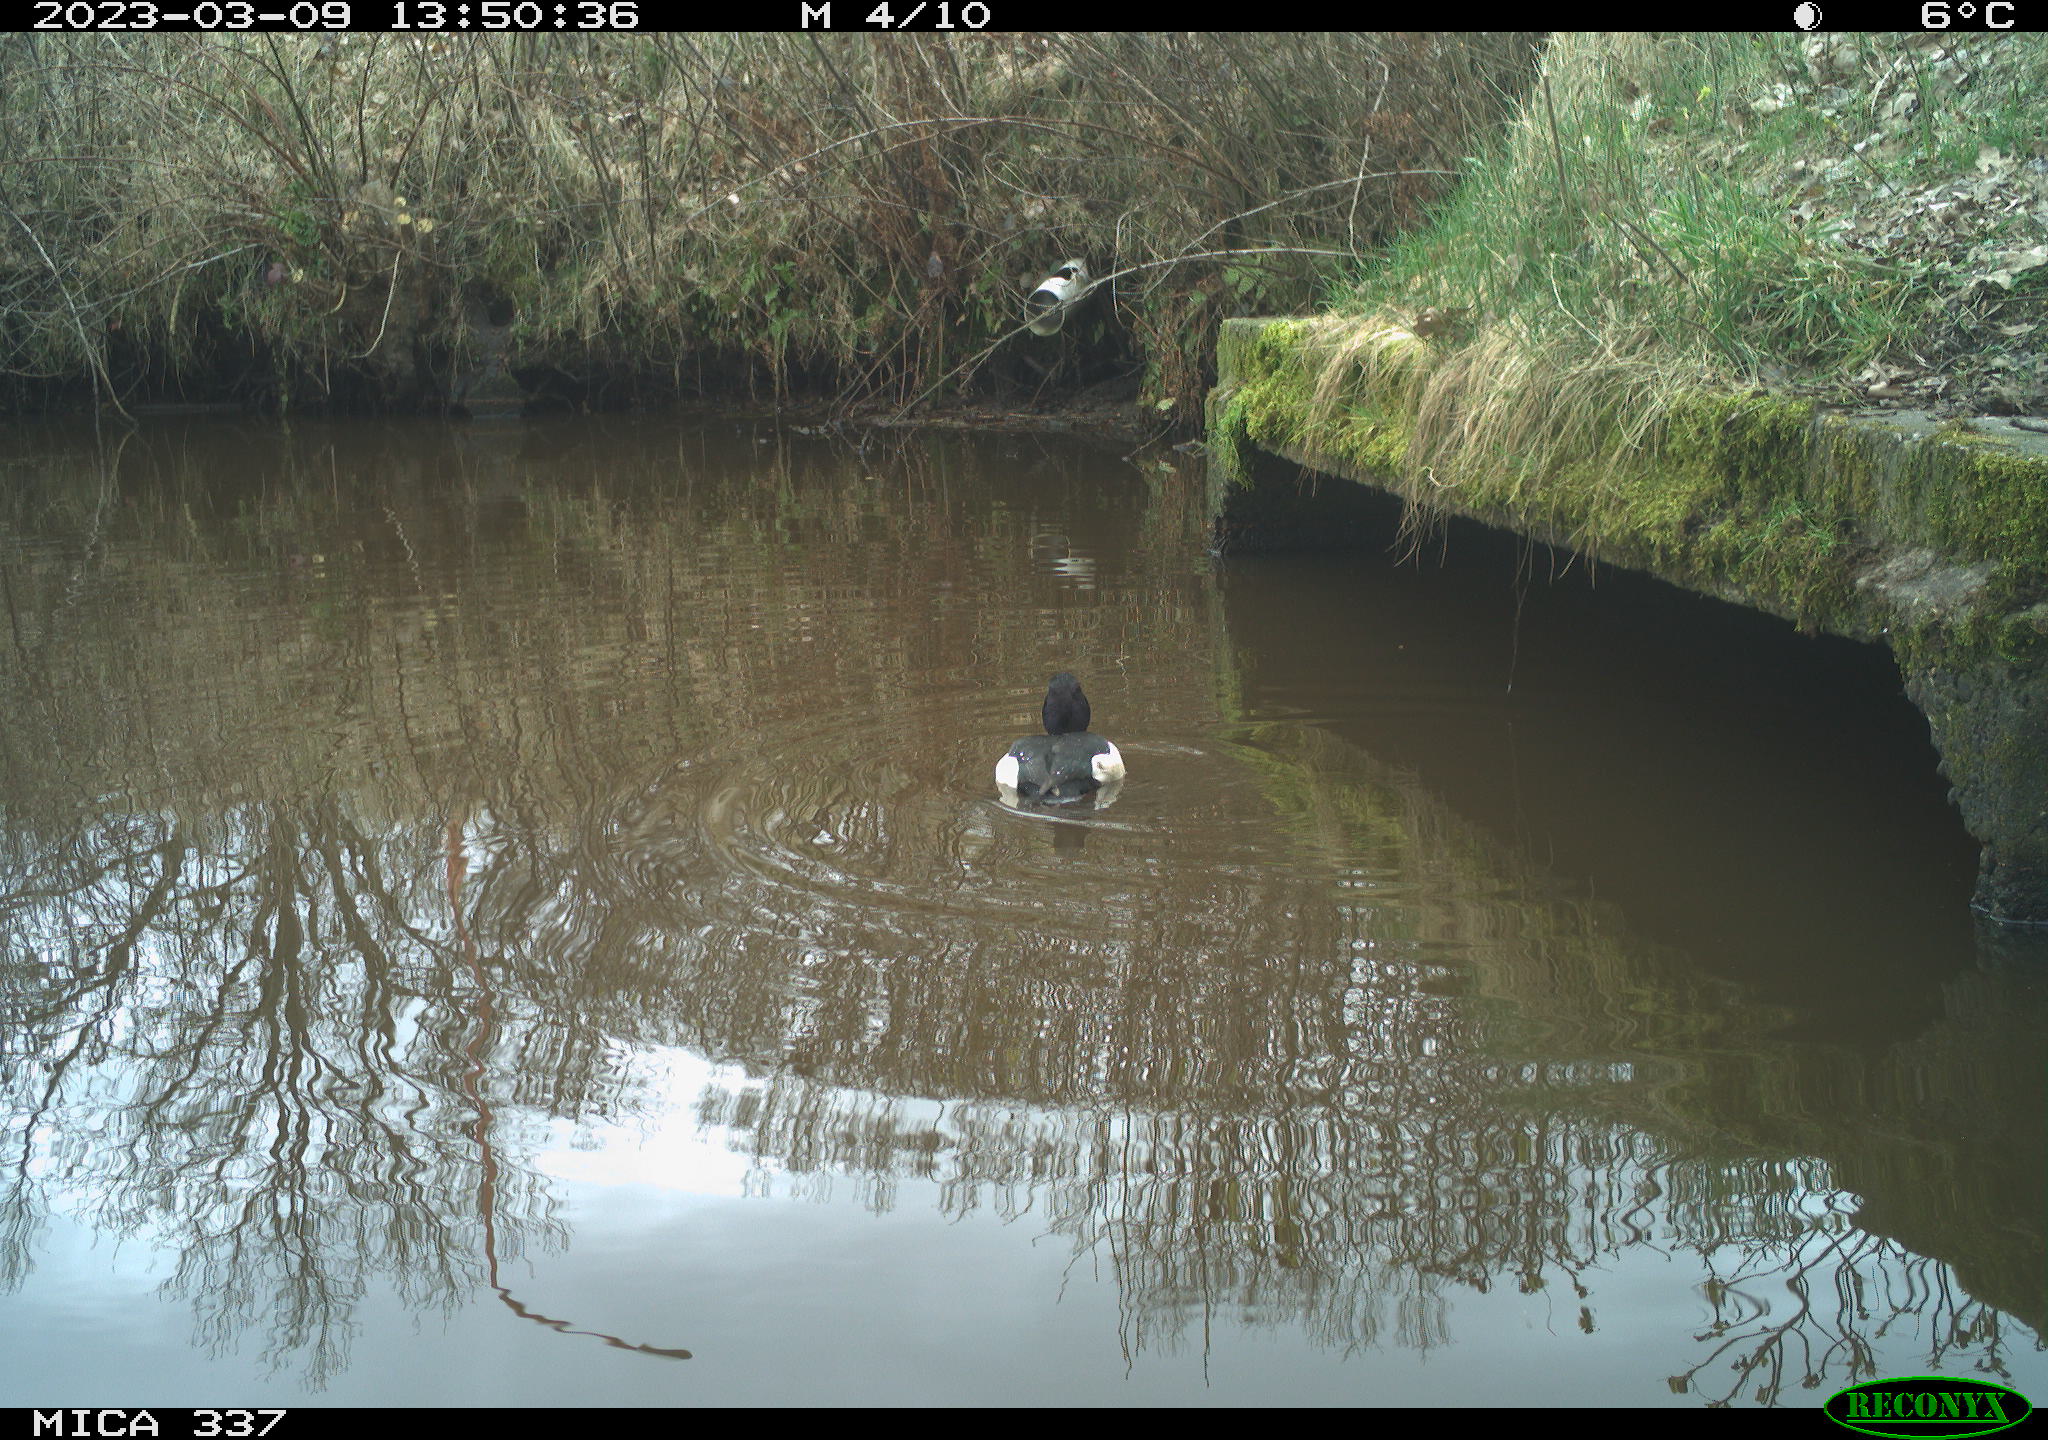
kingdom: Animalia
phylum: Chordata
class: Aves
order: Anseriformes
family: Anatidae
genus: Aythya
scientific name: Aythya fuligula
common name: Tufted duck
